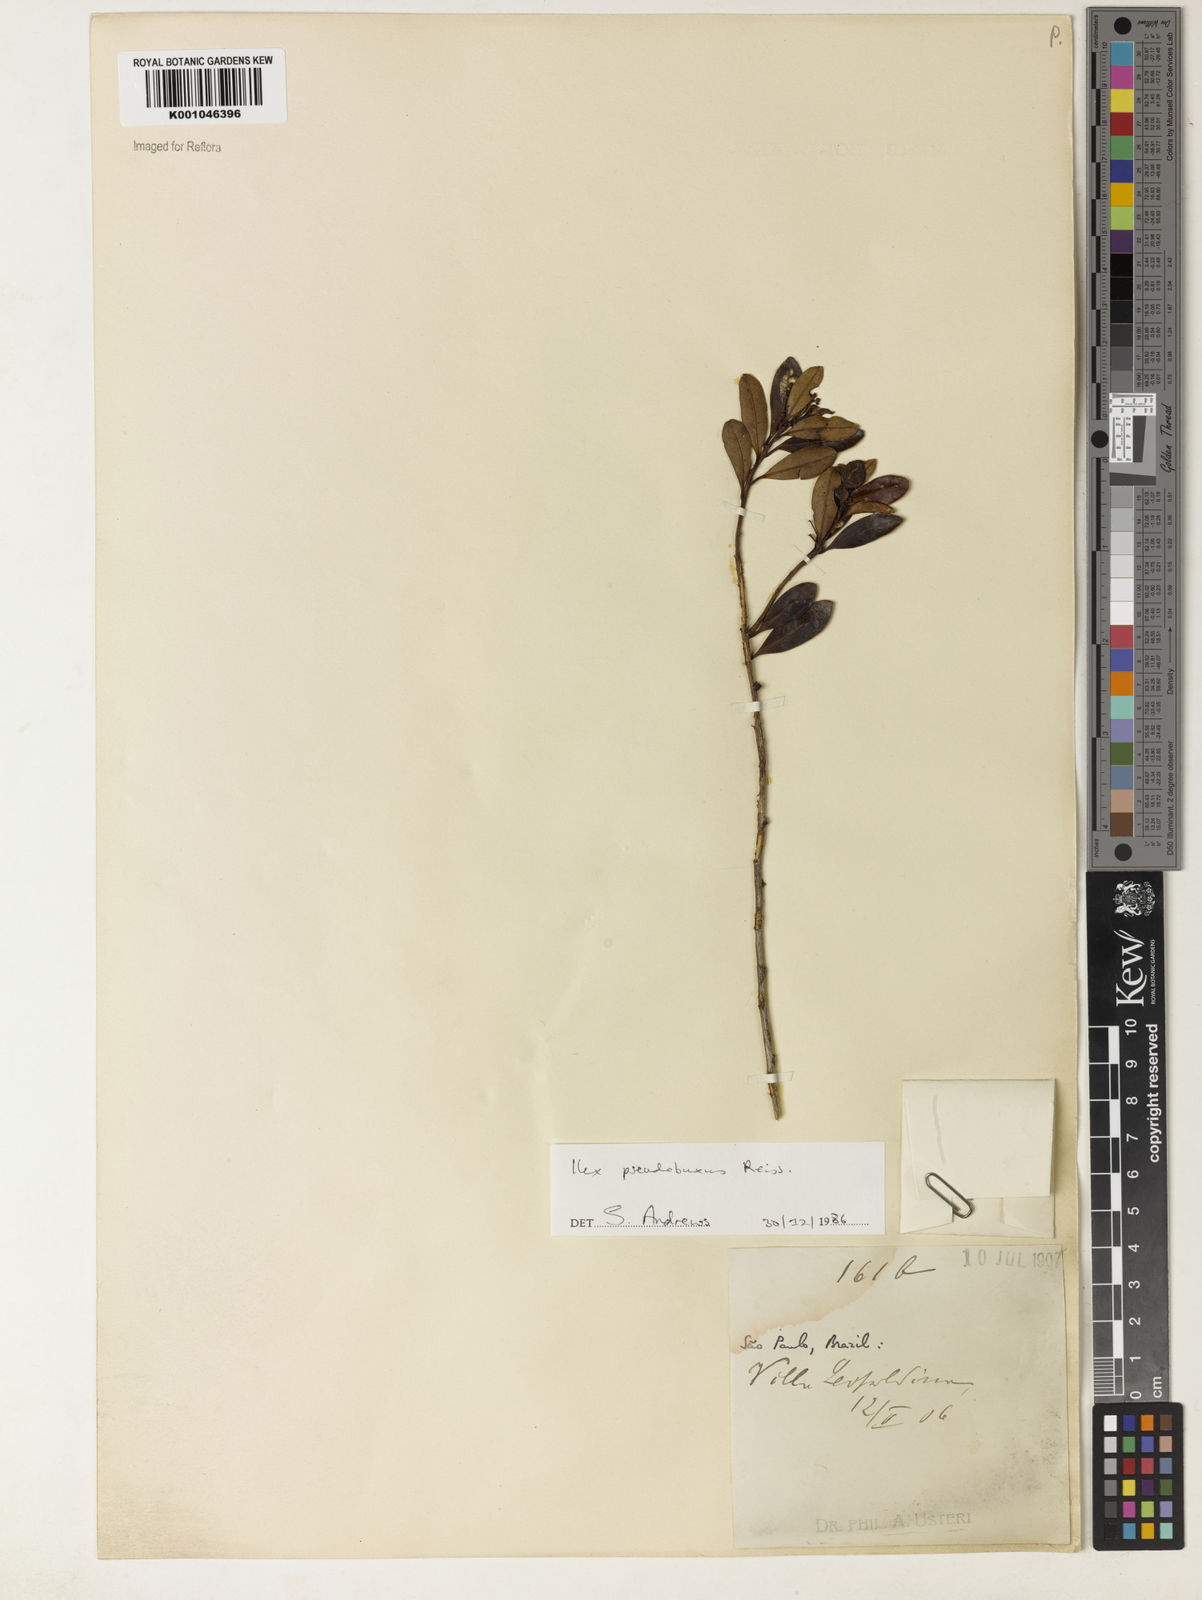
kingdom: Plantae
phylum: Tracheophyta
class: Magnoliopsida
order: Aquifoliales
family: Aquifoliaceae
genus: Ilex
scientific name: Ilex pseudobuxus
